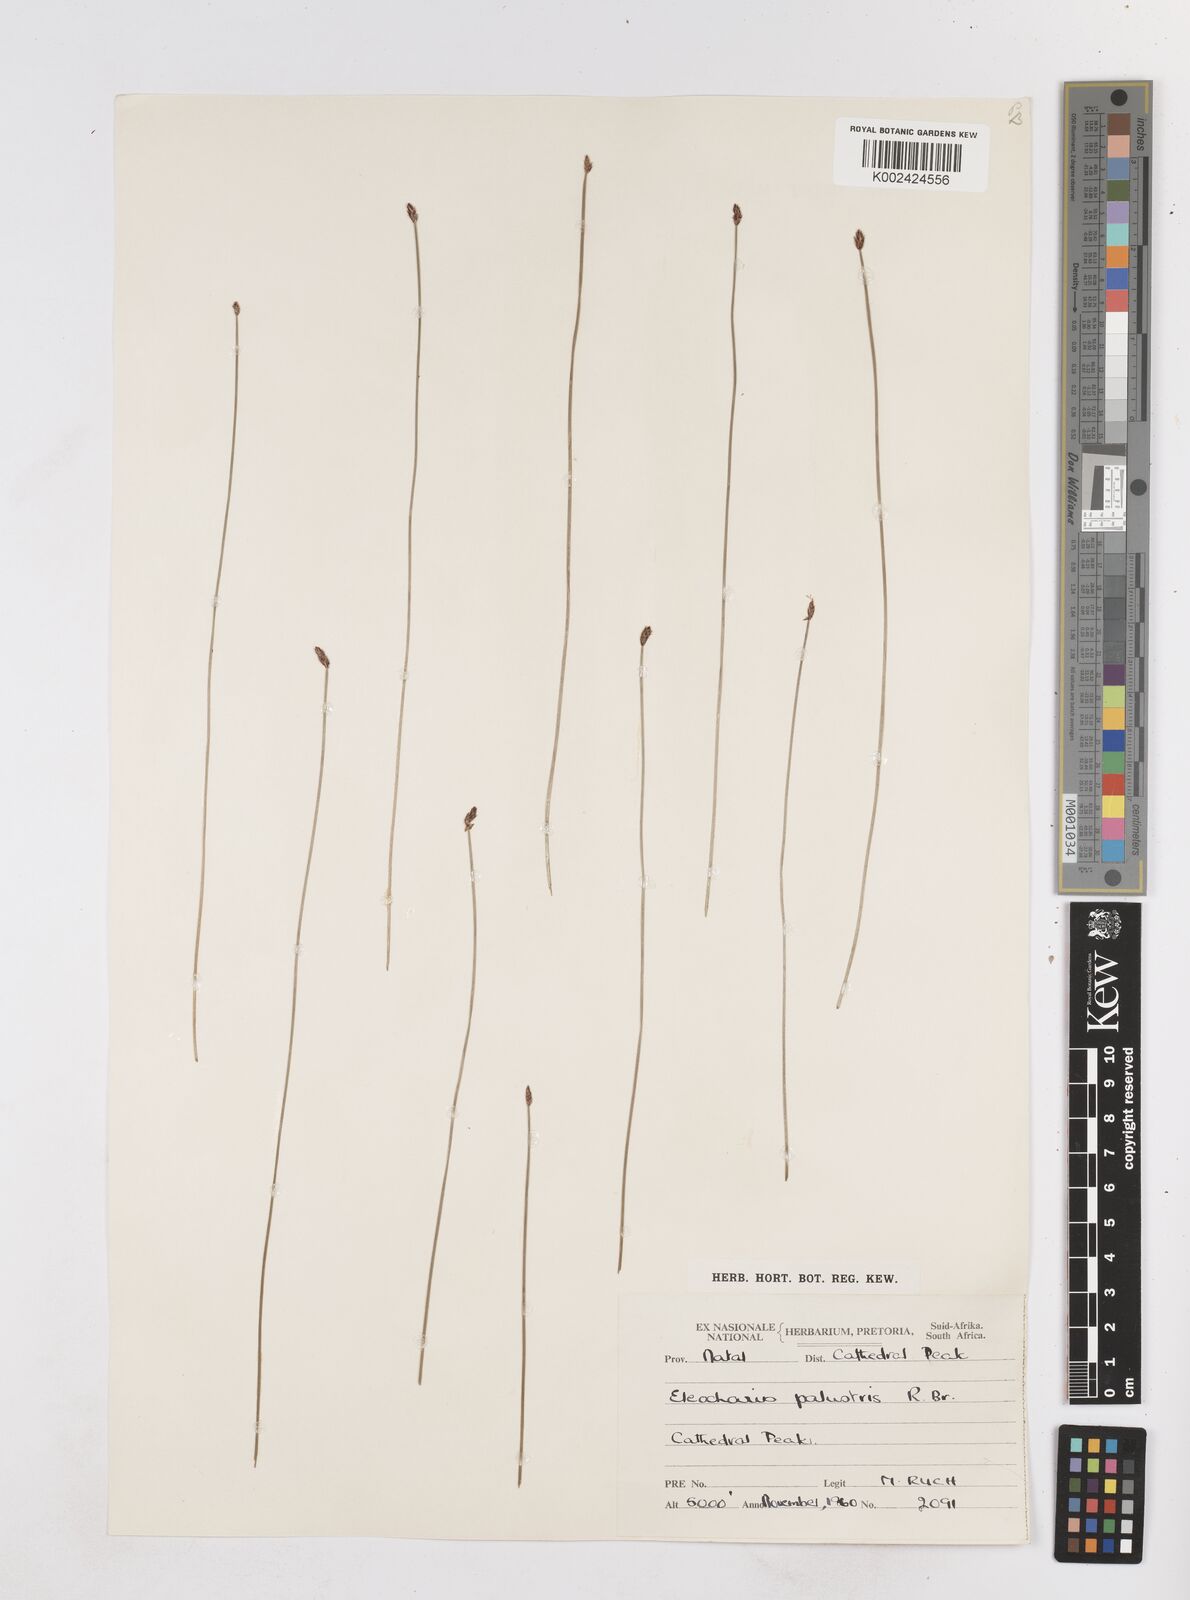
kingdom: Plantae
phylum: Tracheophyta
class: Liliopsida
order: Poales
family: Cyperaceae
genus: Eleocharis
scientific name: Eleocharis
